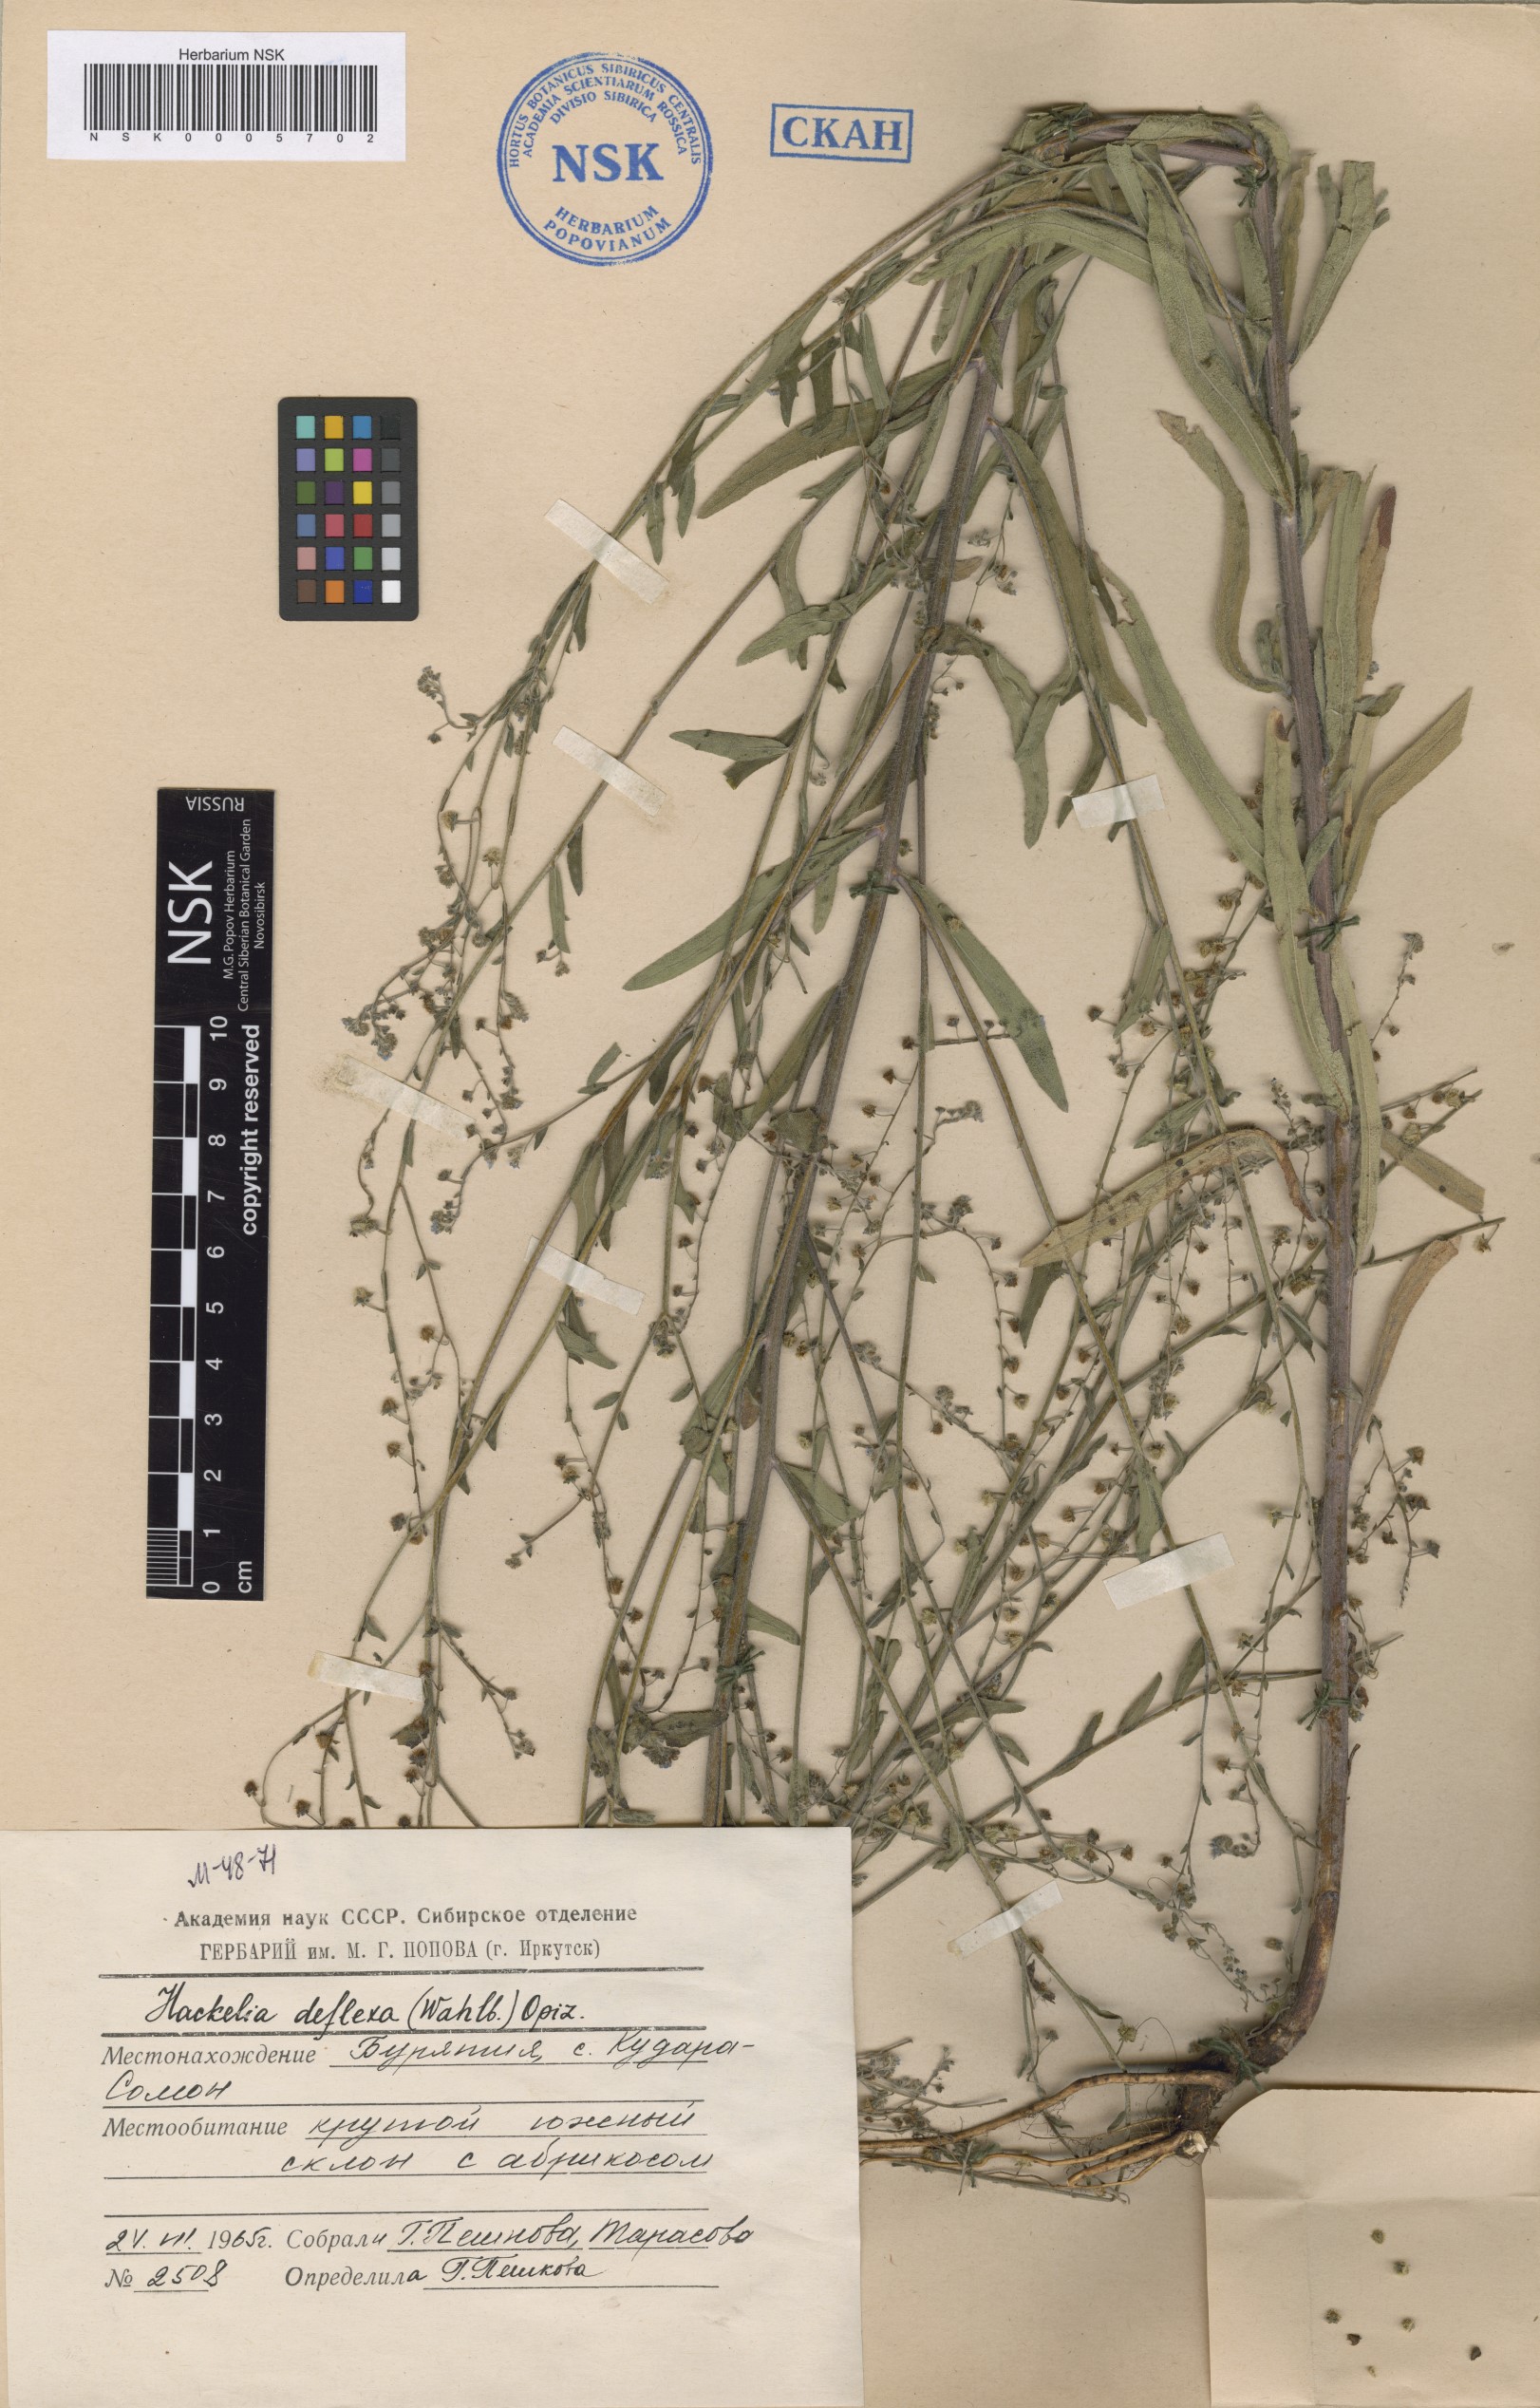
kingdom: Plantae
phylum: Tracheophyta
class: Magnoliopsida
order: Boraginales
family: Boraginaceae
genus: Hackelia
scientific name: Hackelia deflexa
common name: Nodding stickseed
